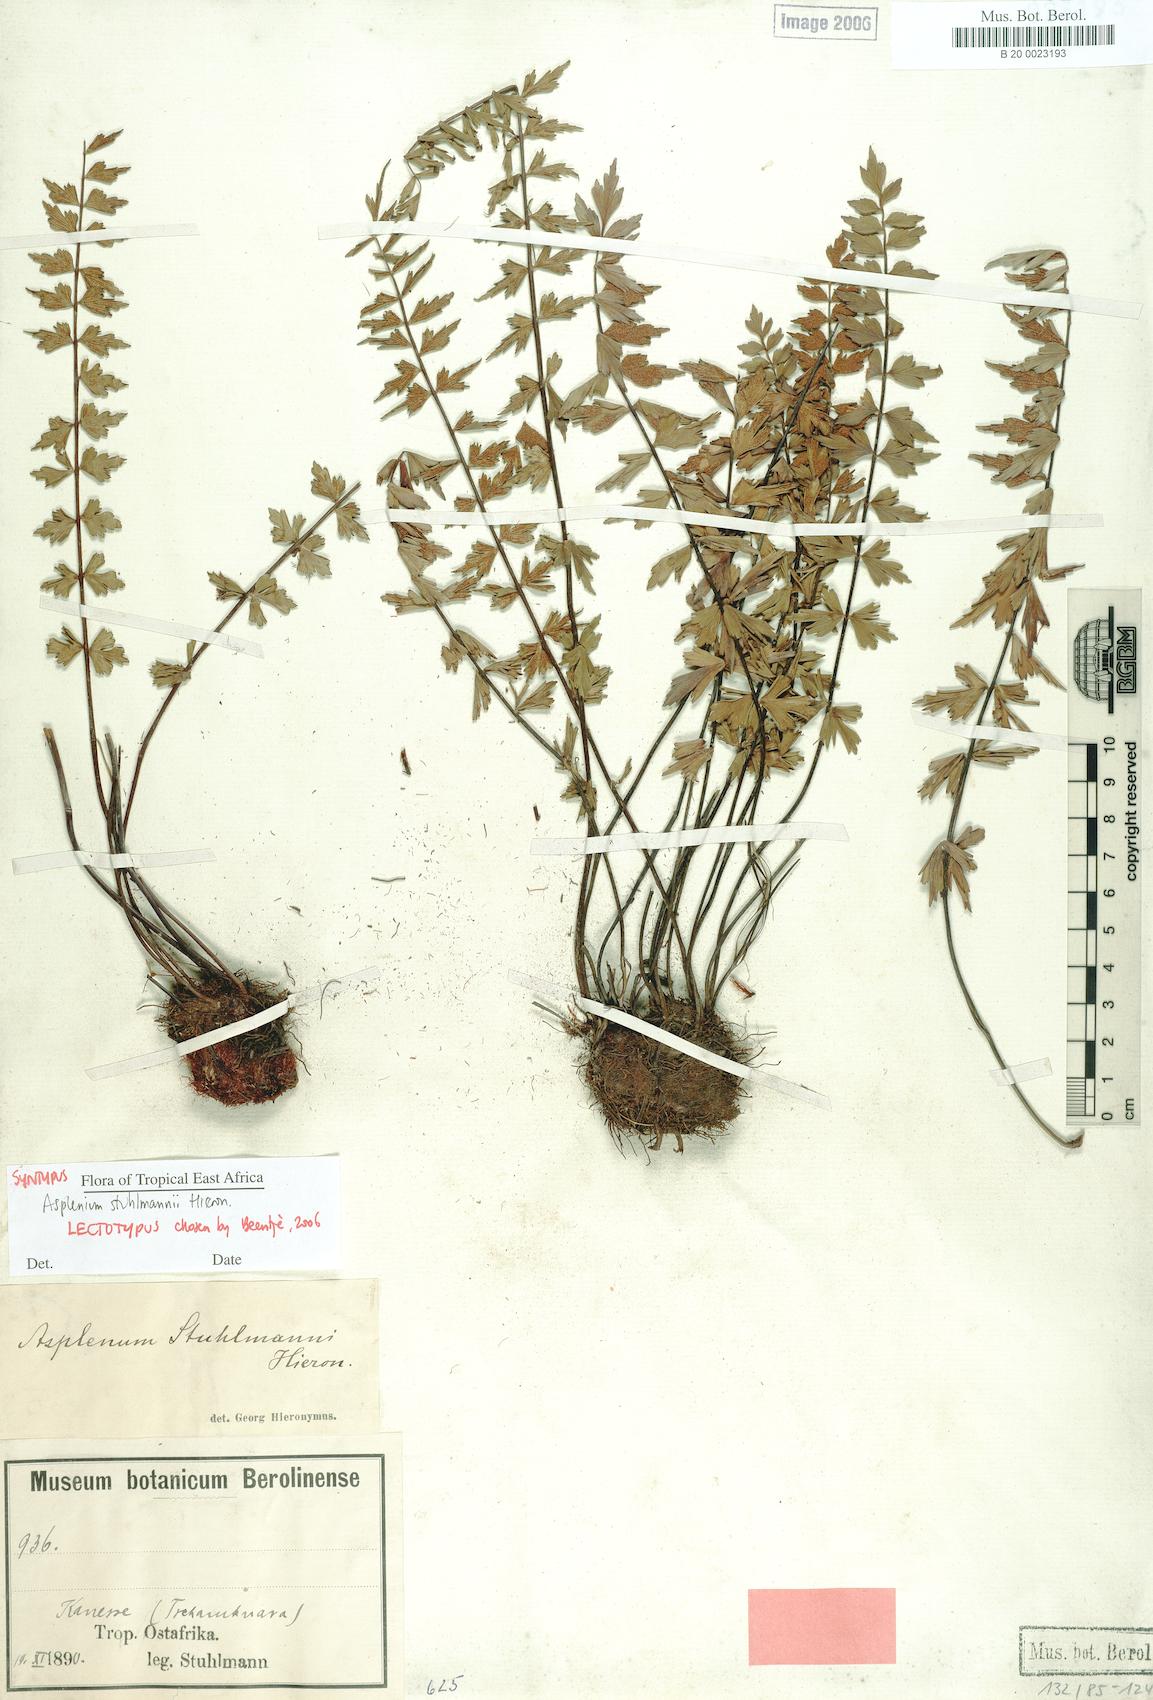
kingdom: Plantae
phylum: Tracheophyta
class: Polypodiopsida
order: Polypodiales
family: Aspleniaceae
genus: Asplenium
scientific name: Asplenium stuhlmannii
